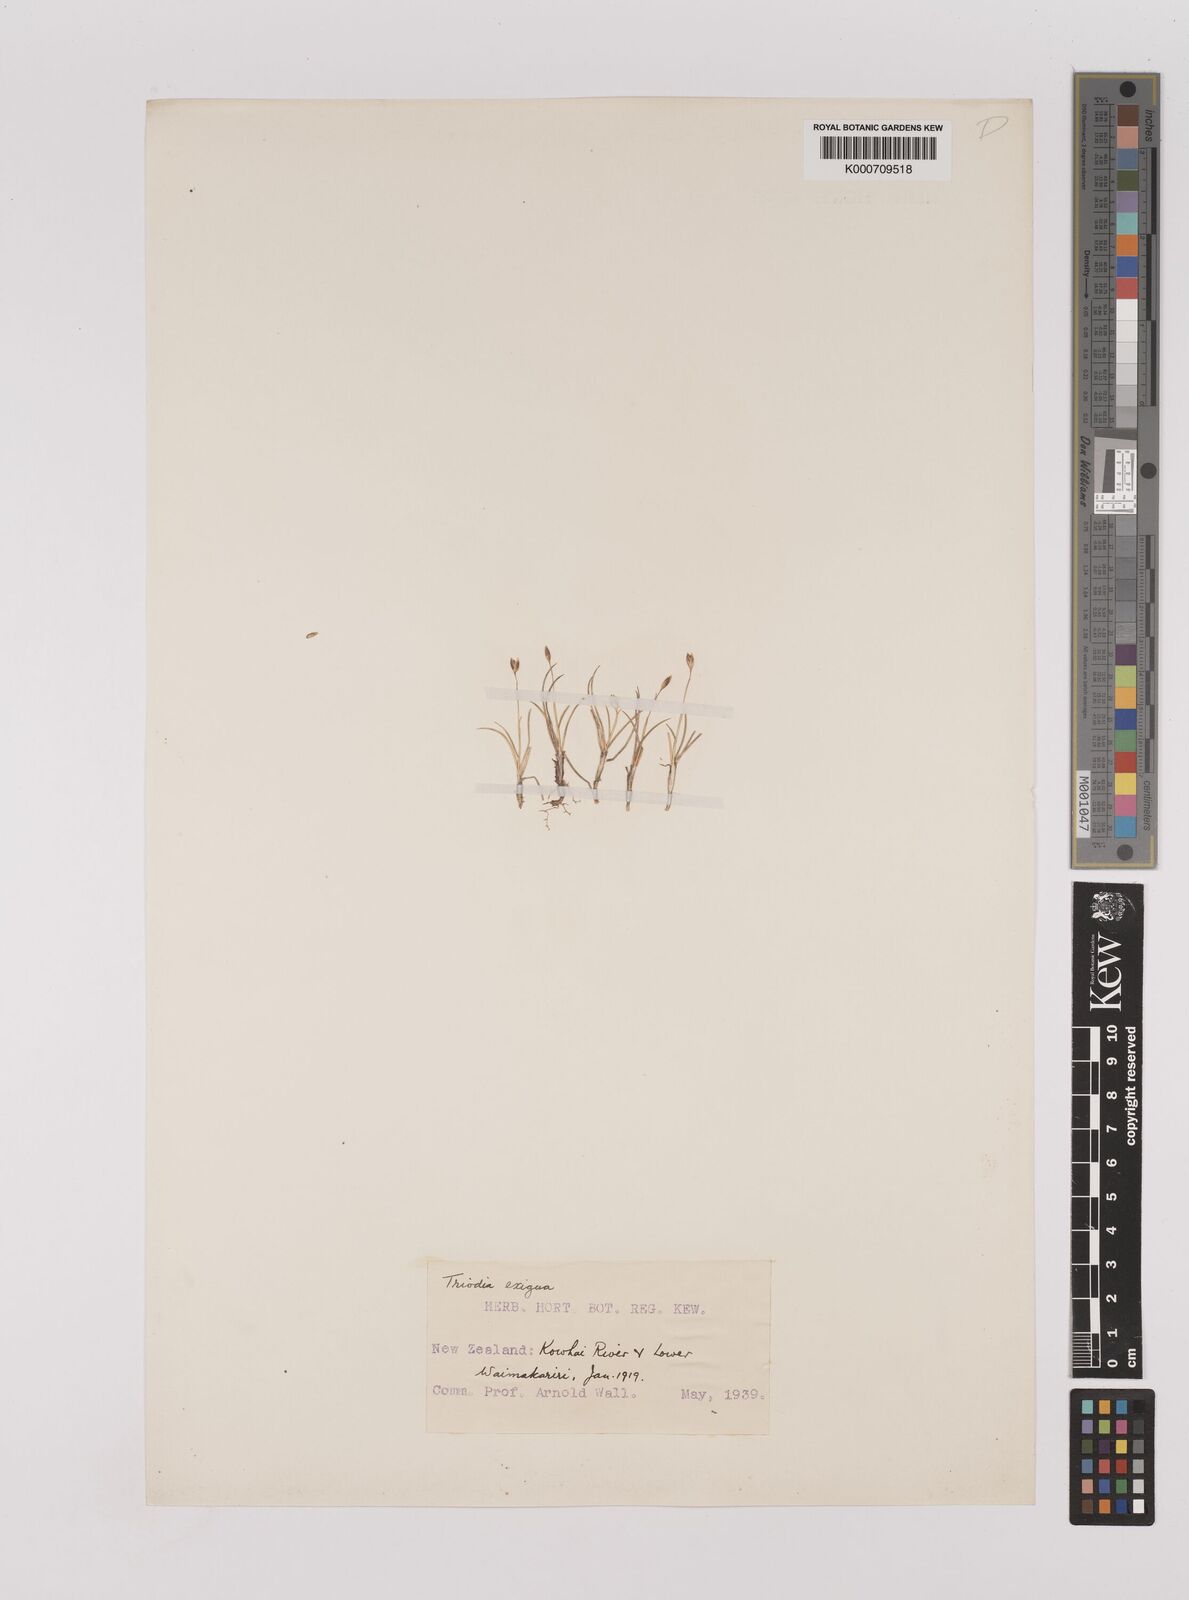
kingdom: Plantae
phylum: Tracheophyta
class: Liliopsida
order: Poales
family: Poaceae
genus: Rytidosperma
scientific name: Rytidosperma exiguum
